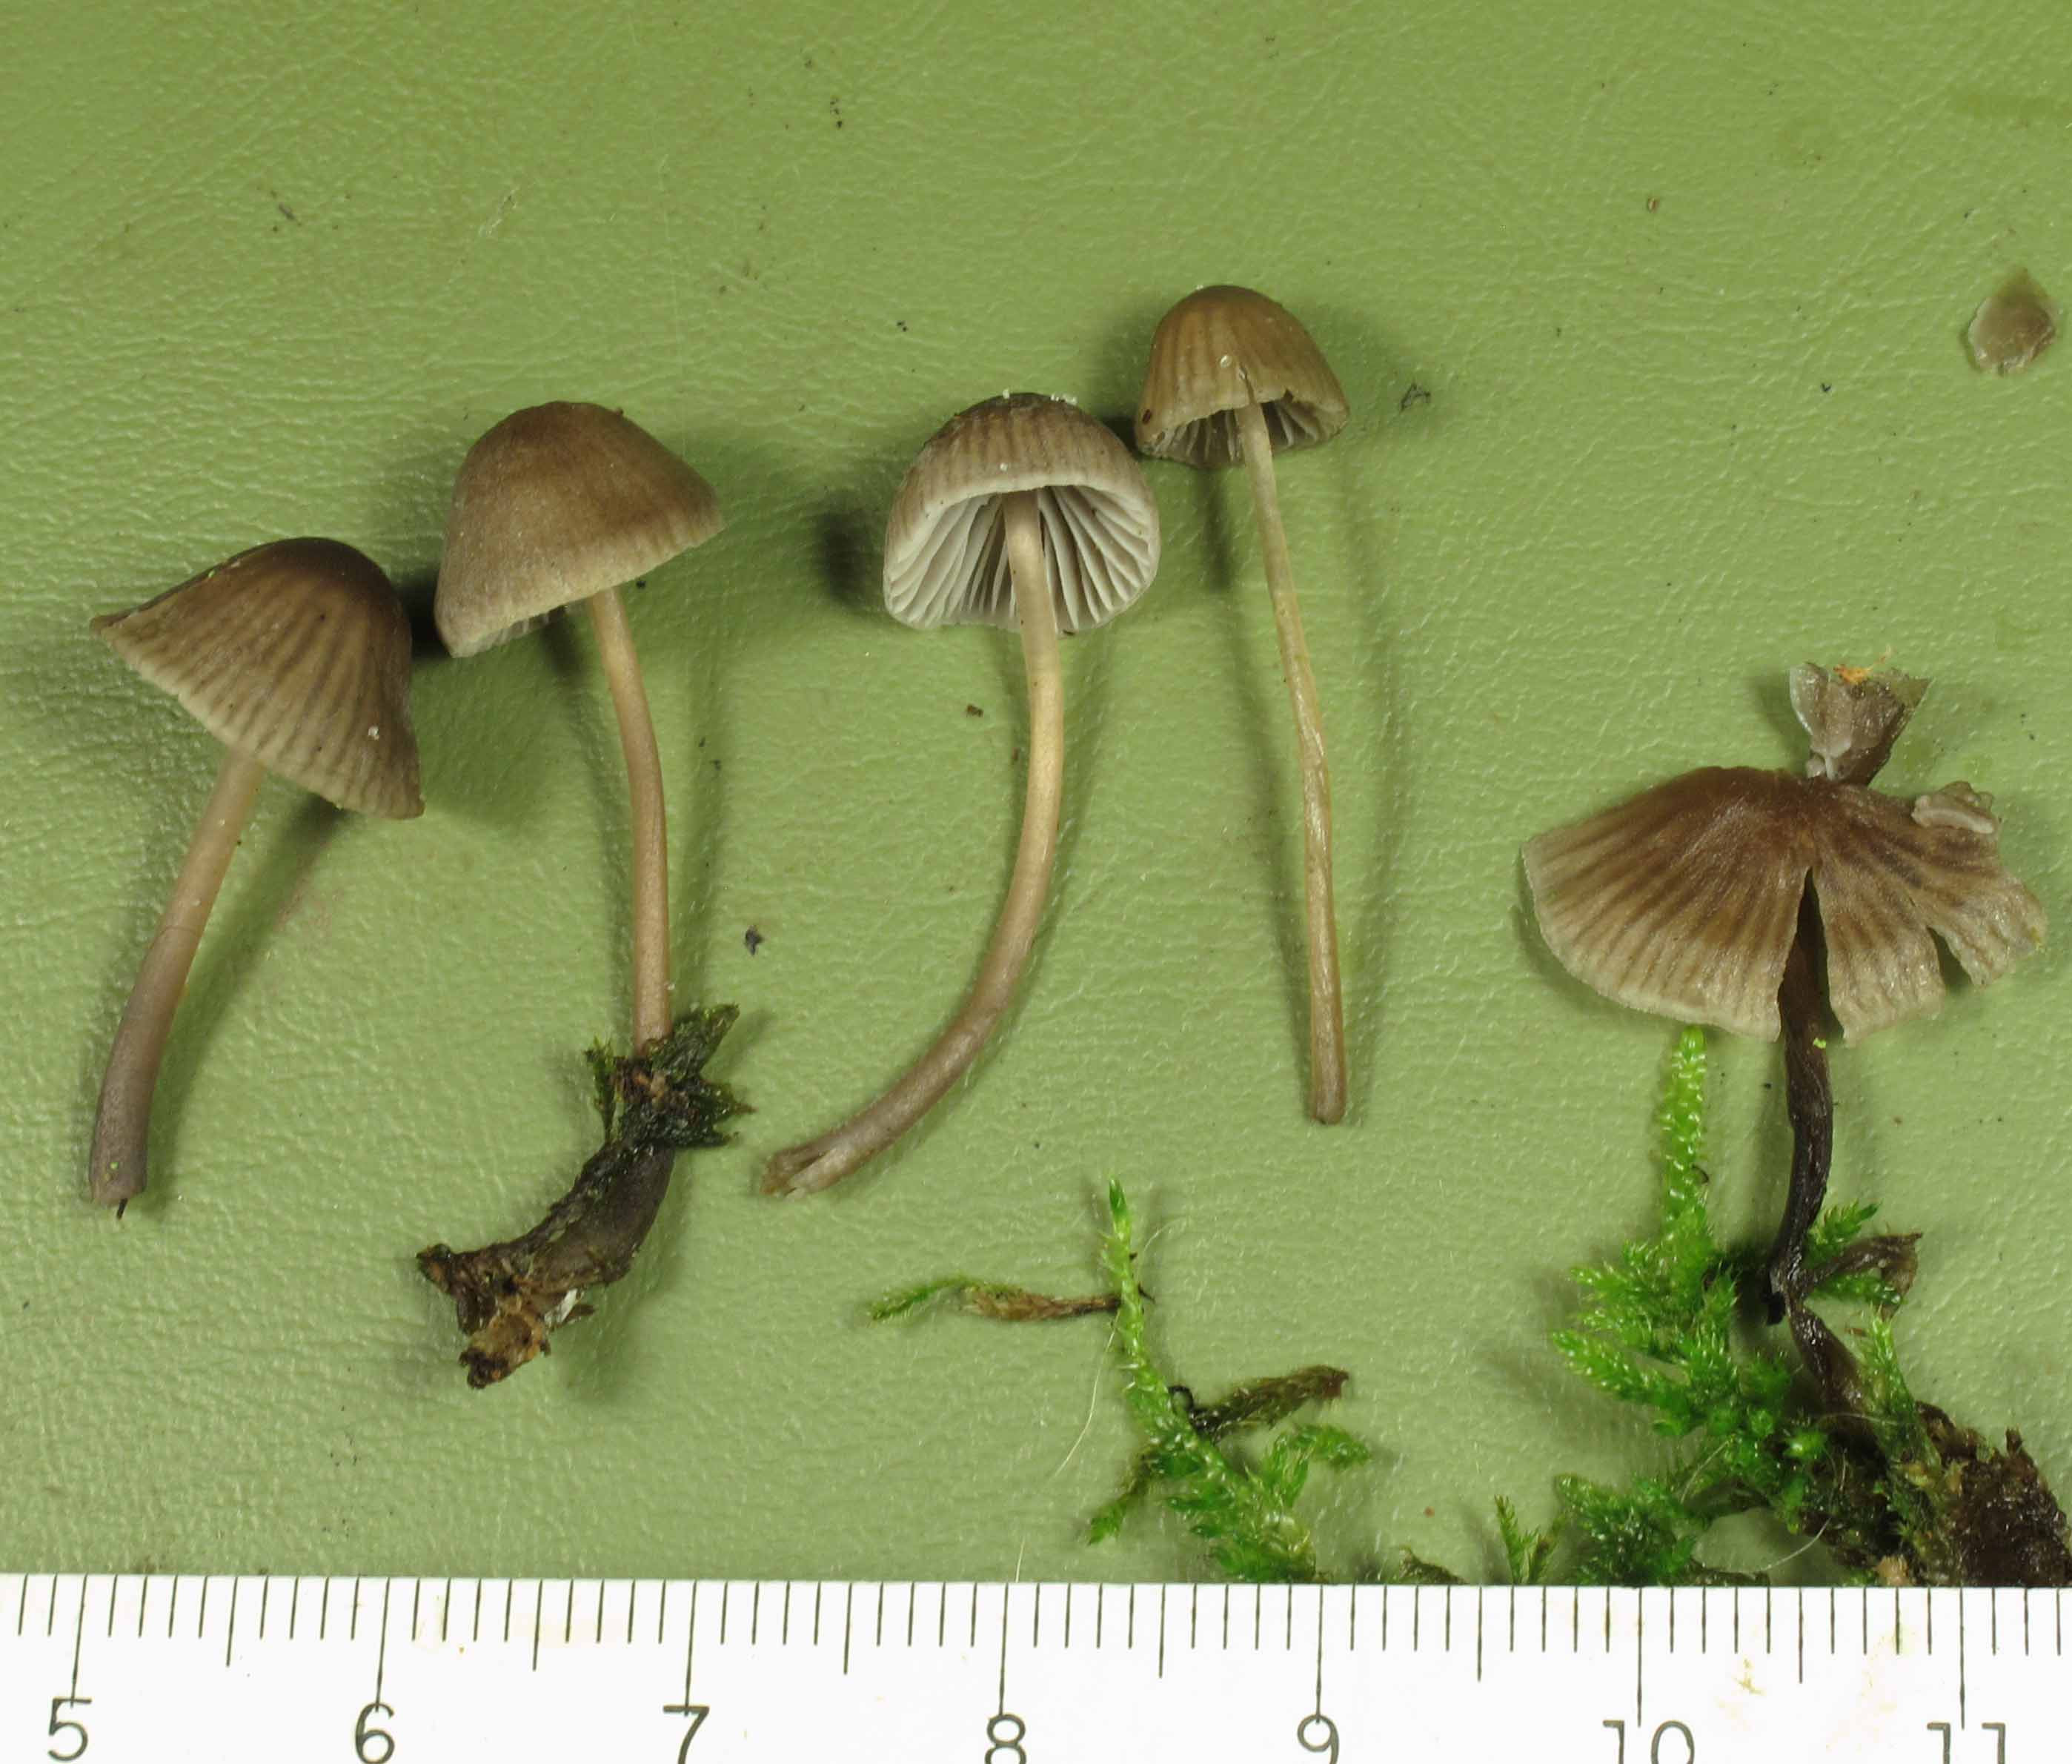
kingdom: Fungi
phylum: Basidiomycota
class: Agaricomycetes
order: Agaricales
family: Mycenaceae
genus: Mycena
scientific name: Mycena leptocephala
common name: klor-huesvamp
